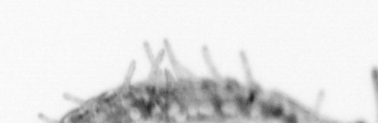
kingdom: Animalia
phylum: Annelida
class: Polychaeta
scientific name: Polychaeta
